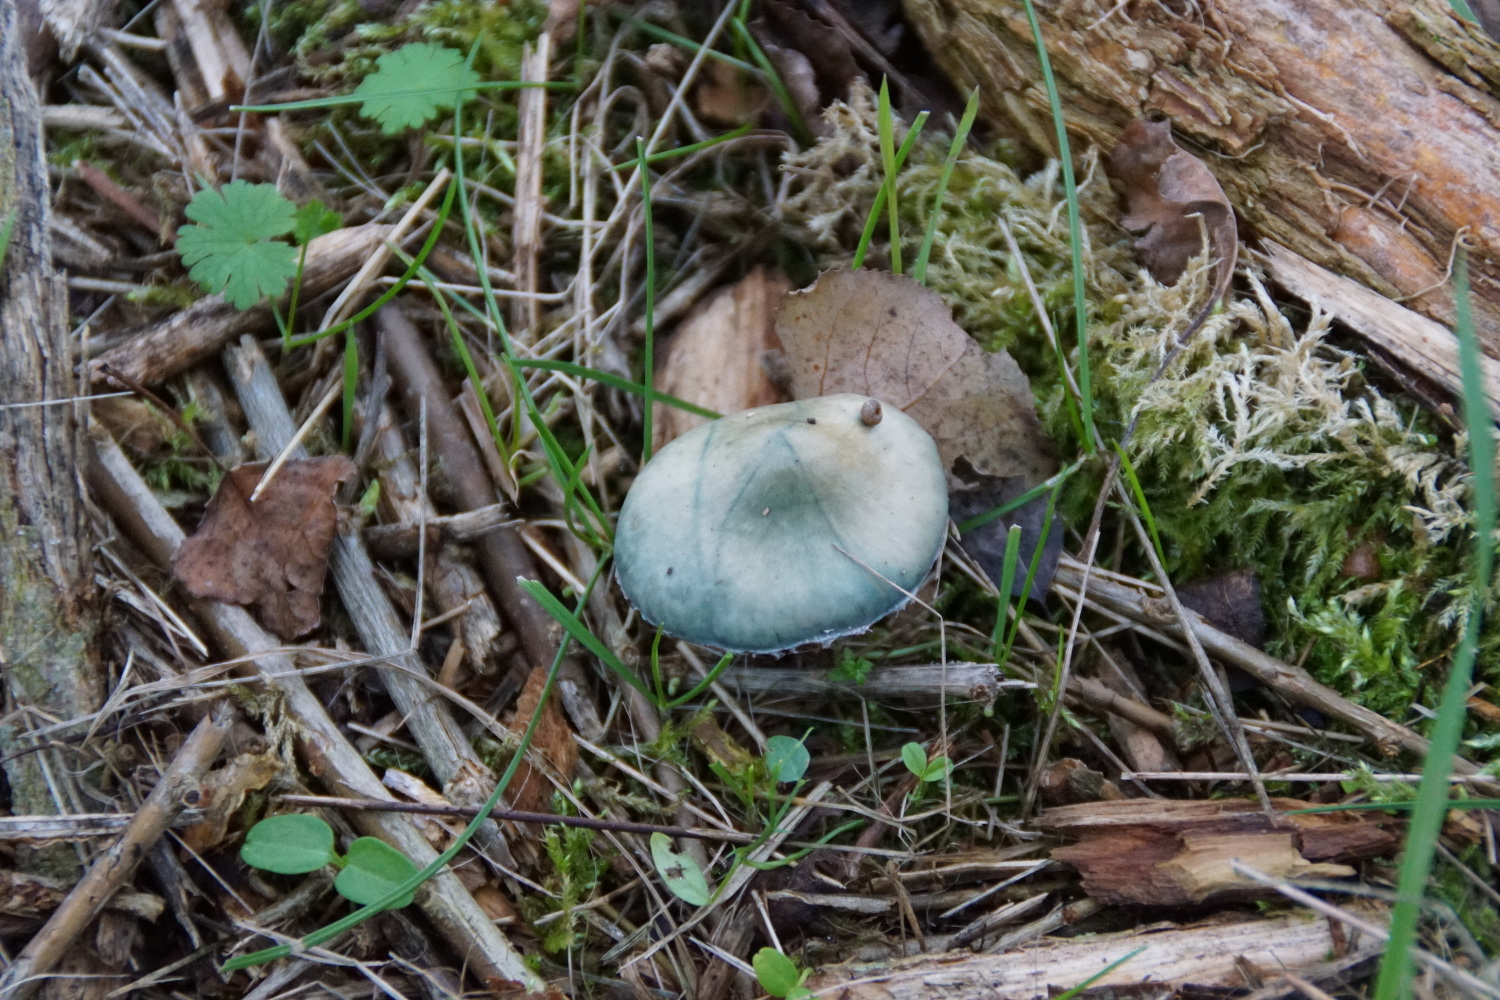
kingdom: Fungi
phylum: Basidiomycota
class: Agaricomycetes
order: Agaricales
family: Strophariaceae
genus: Stropharia
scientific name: Stropharia cyanea
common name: blågrøn bredblad
